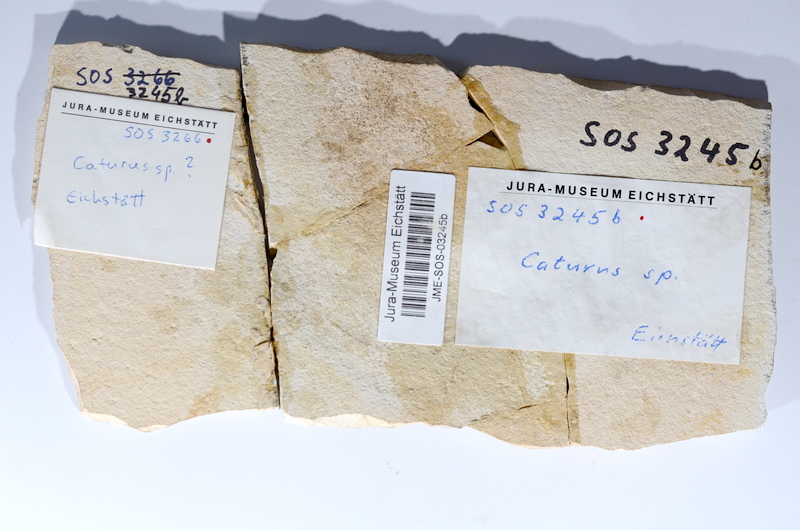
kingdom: Animalia
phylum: Chordata
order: Amiiformes
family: Caturidae
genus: Caturus
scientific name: Caturus
